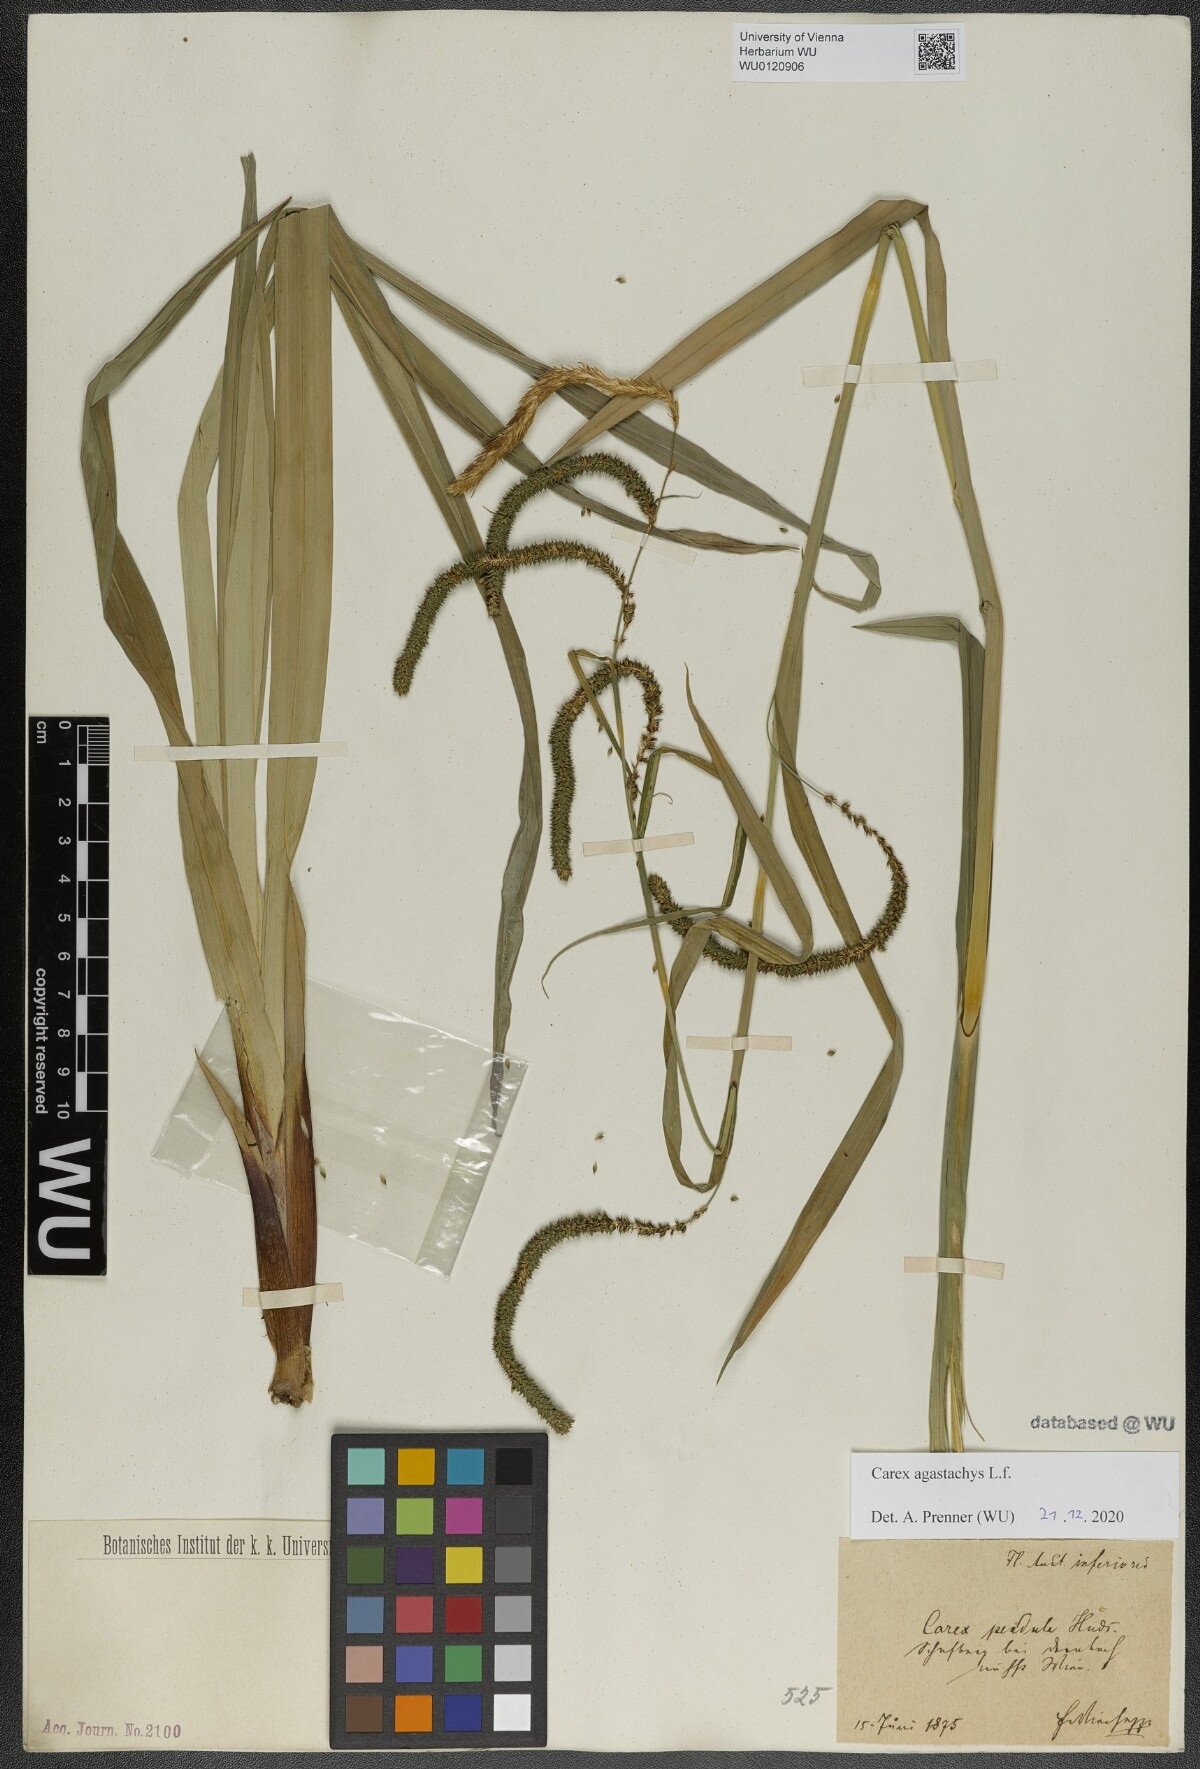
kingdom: Plantae
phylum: Tracheophyta
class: Liliopsida
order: Poales
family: Cyperaceae
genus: Carex
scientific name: Carex agastachys
